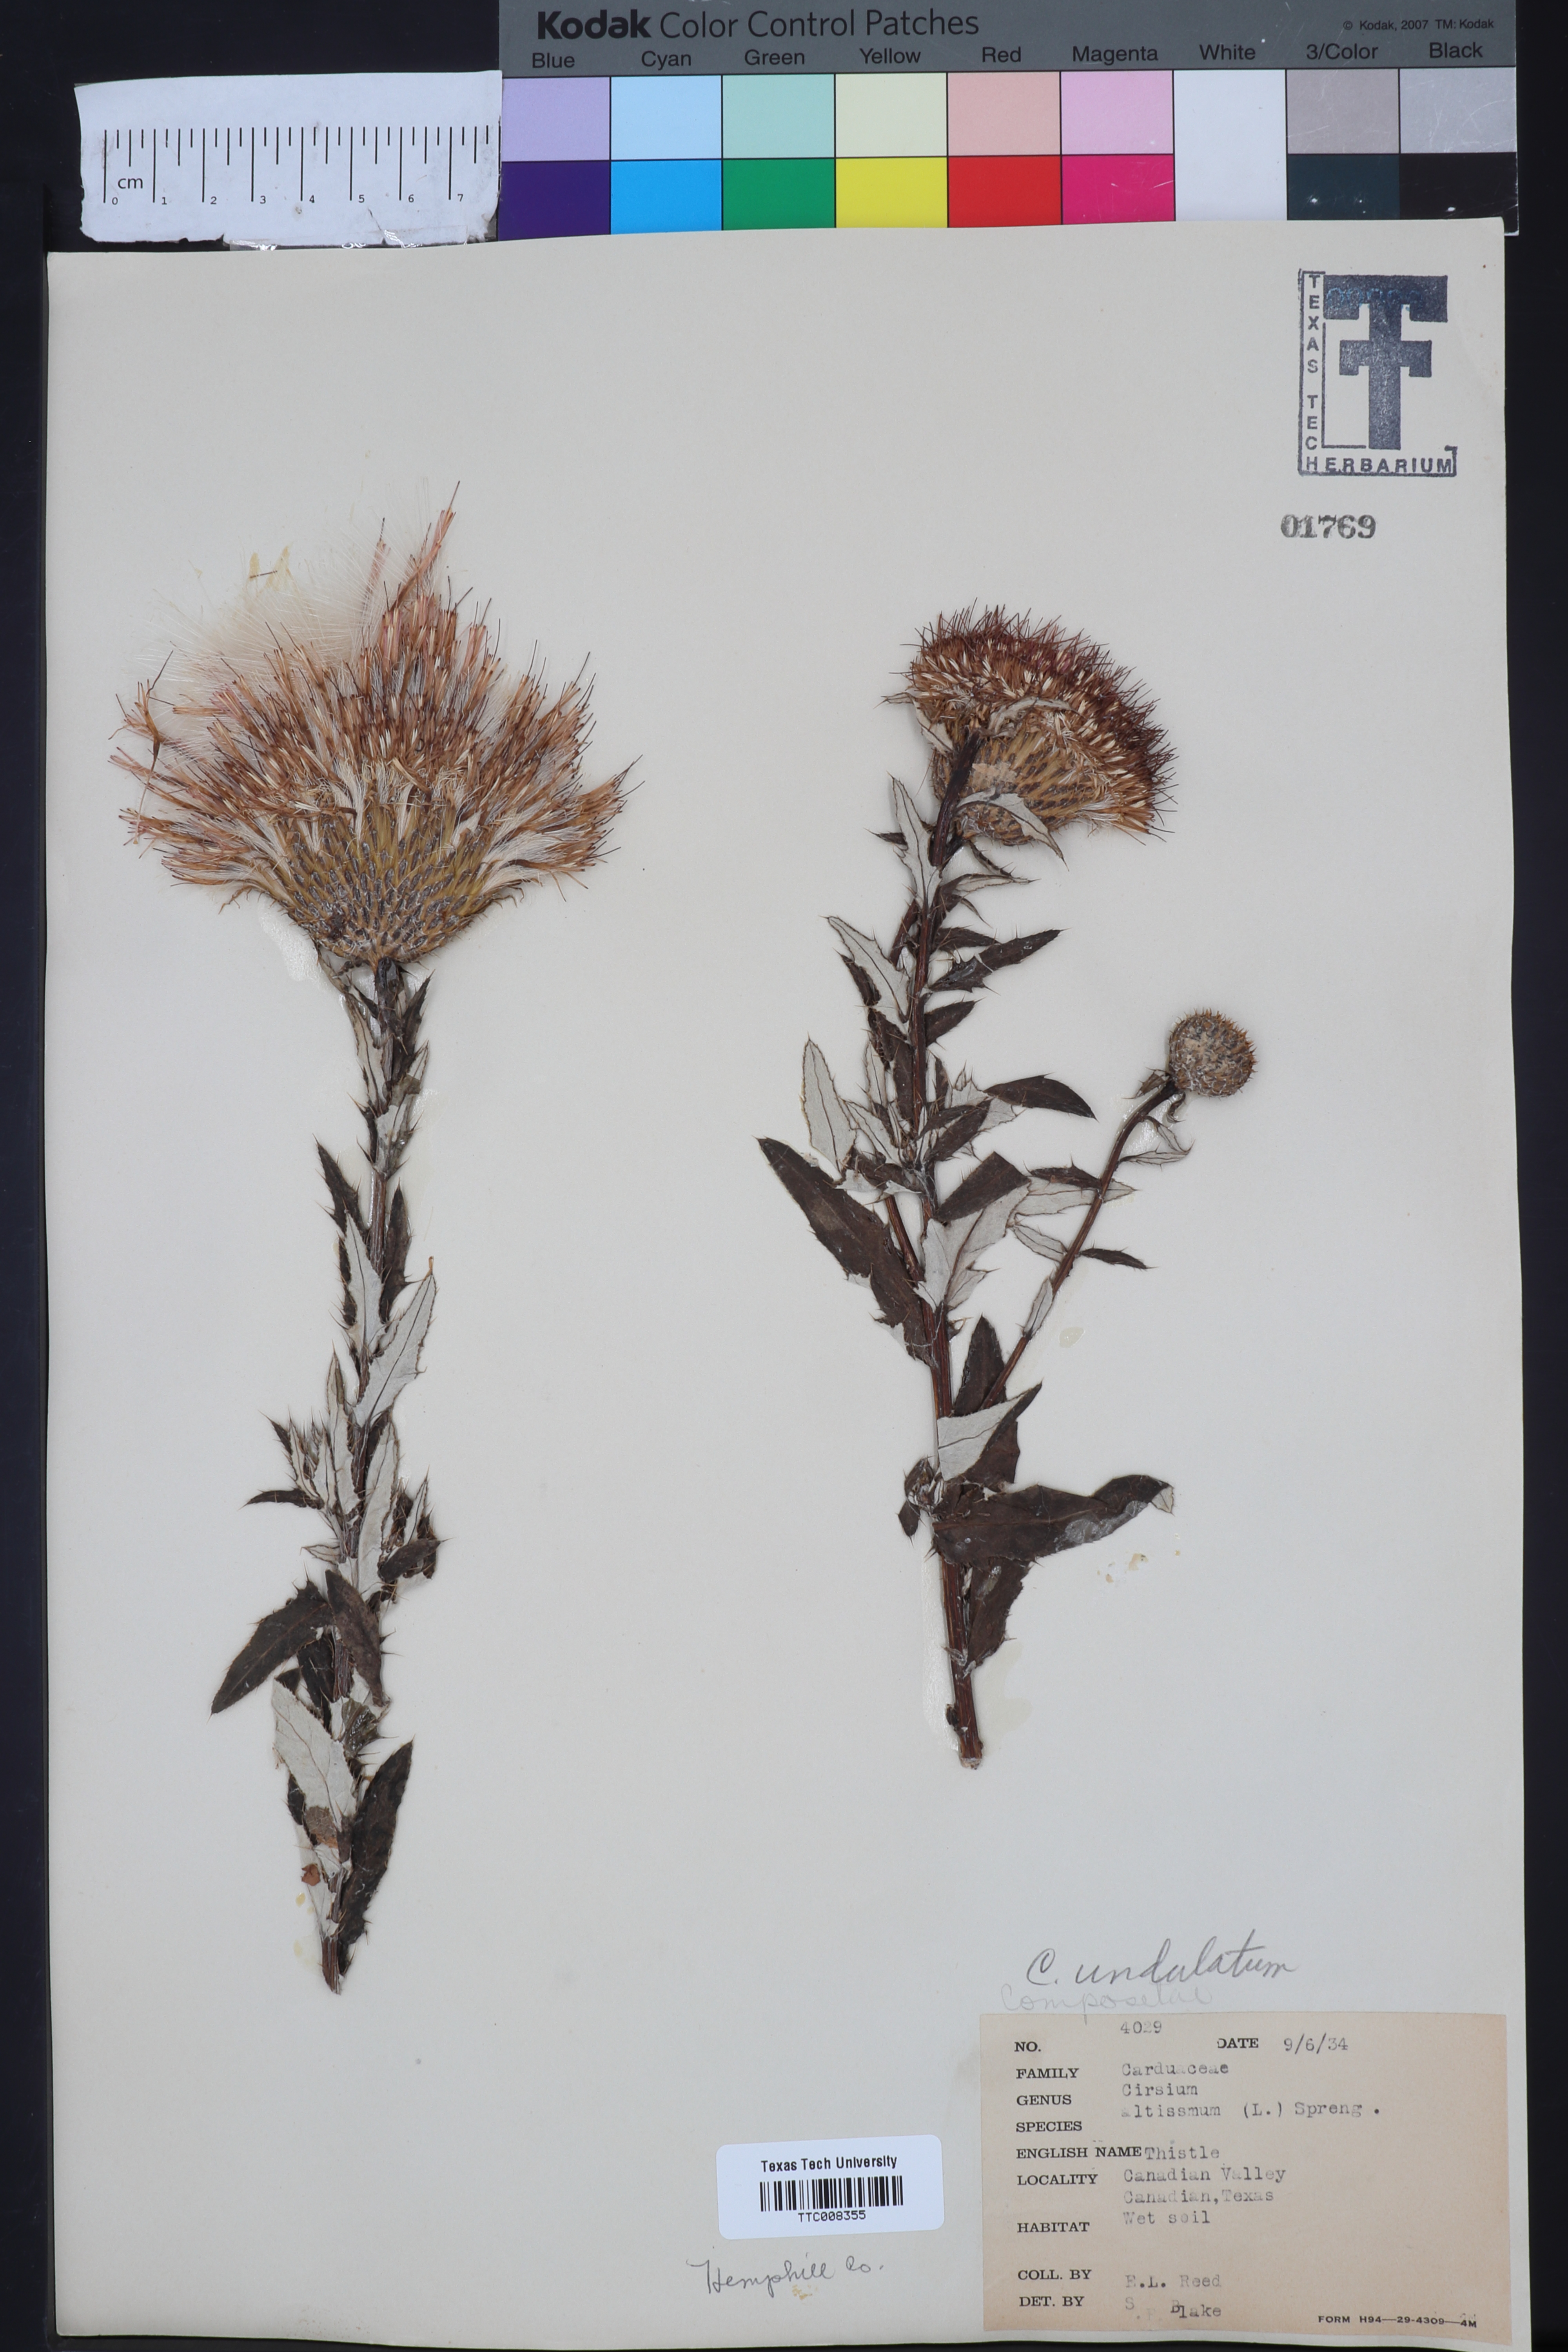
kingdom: Plantae
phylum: Tracheophyta
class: Magnoliopsida
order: Asterales
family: Asteraceae
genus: Cirsium
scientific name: Cirsium undulatum
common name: Pasture thistle
